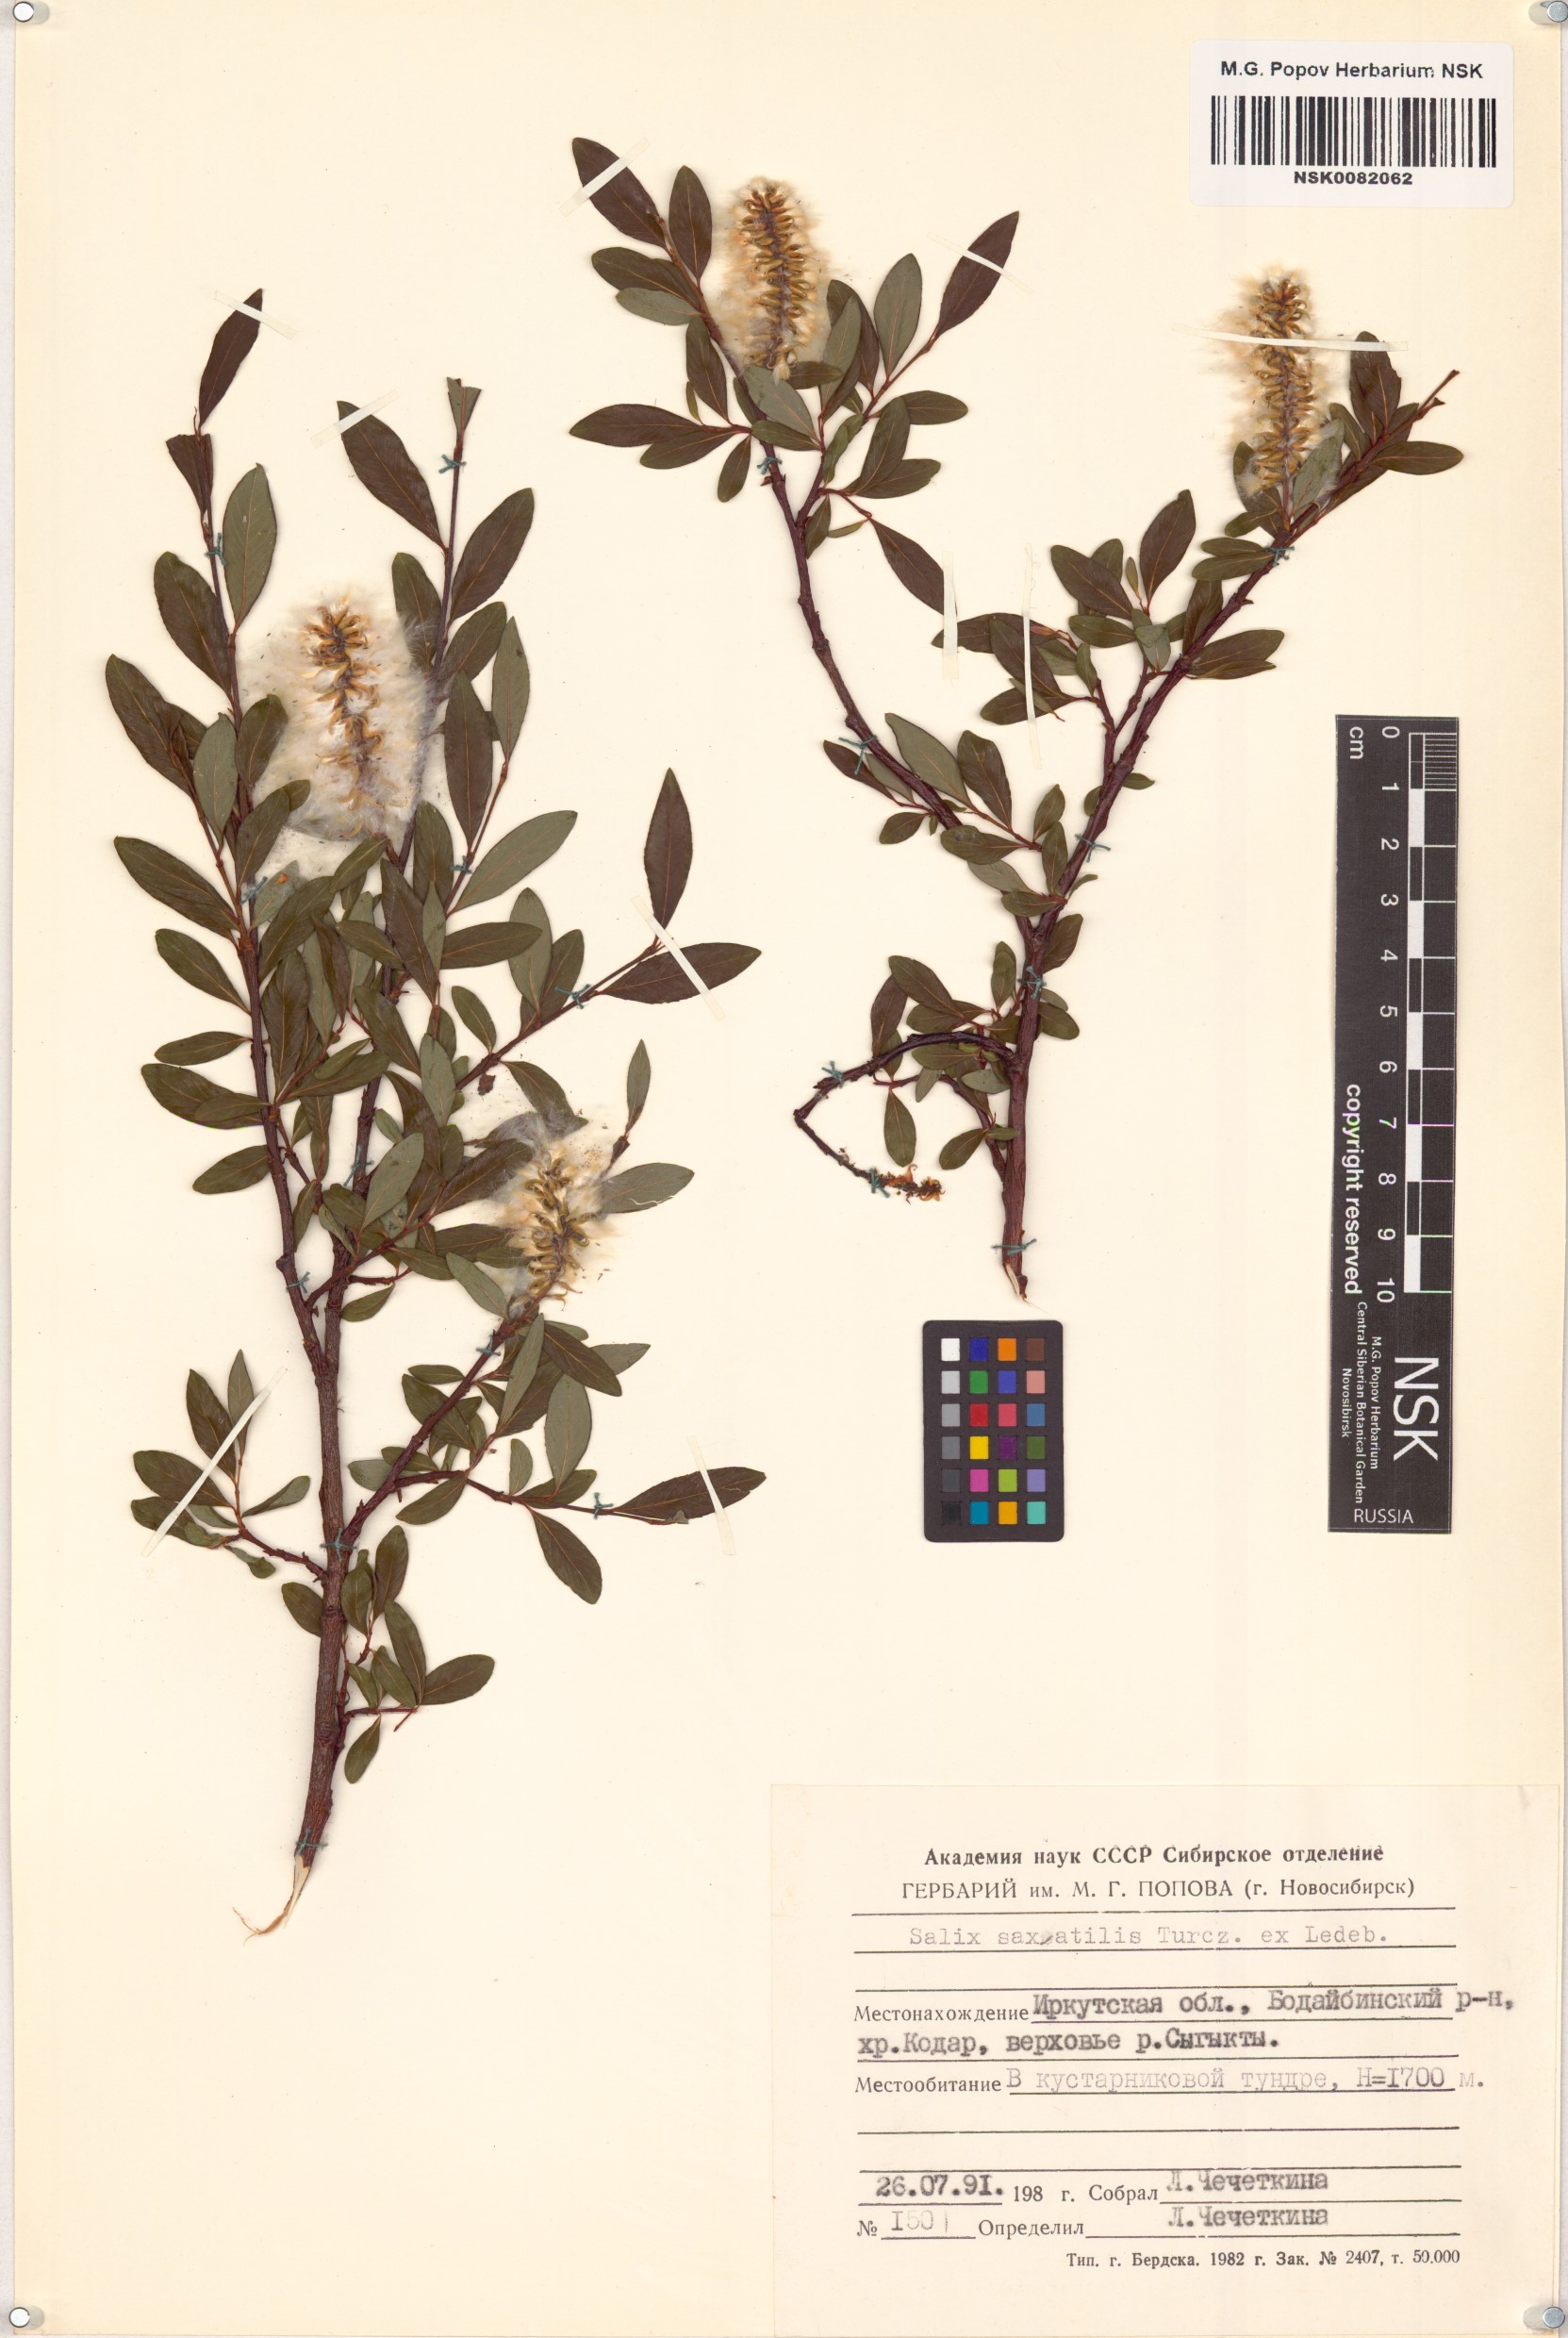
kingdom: Plantae
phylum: Tracheophyta
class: Magnoliopsida
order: Malpighiales
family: Salicaceae
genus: Salix
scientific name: Salix saxatilis
